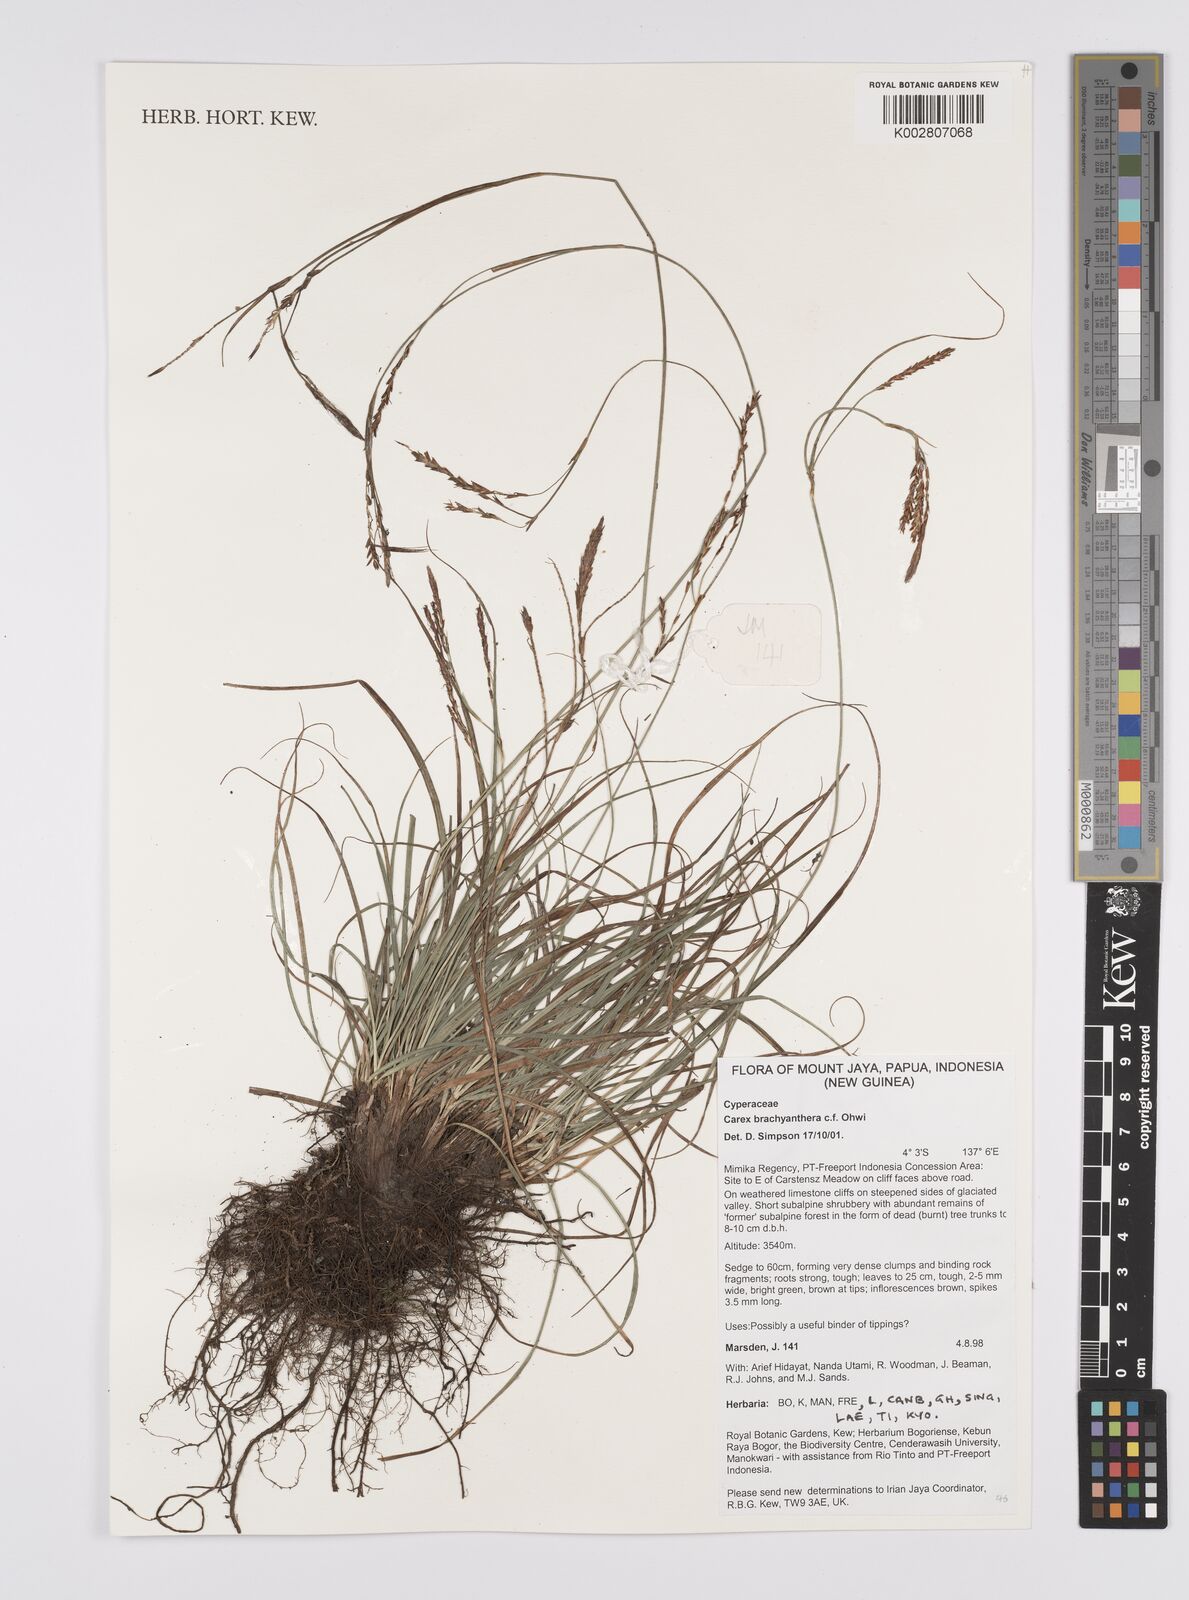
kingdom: Plantae
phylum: Tracheophyta
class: Liliopsida
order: Poales
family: Cyperaceae
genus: Carex
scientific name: Carex brachyanthera
